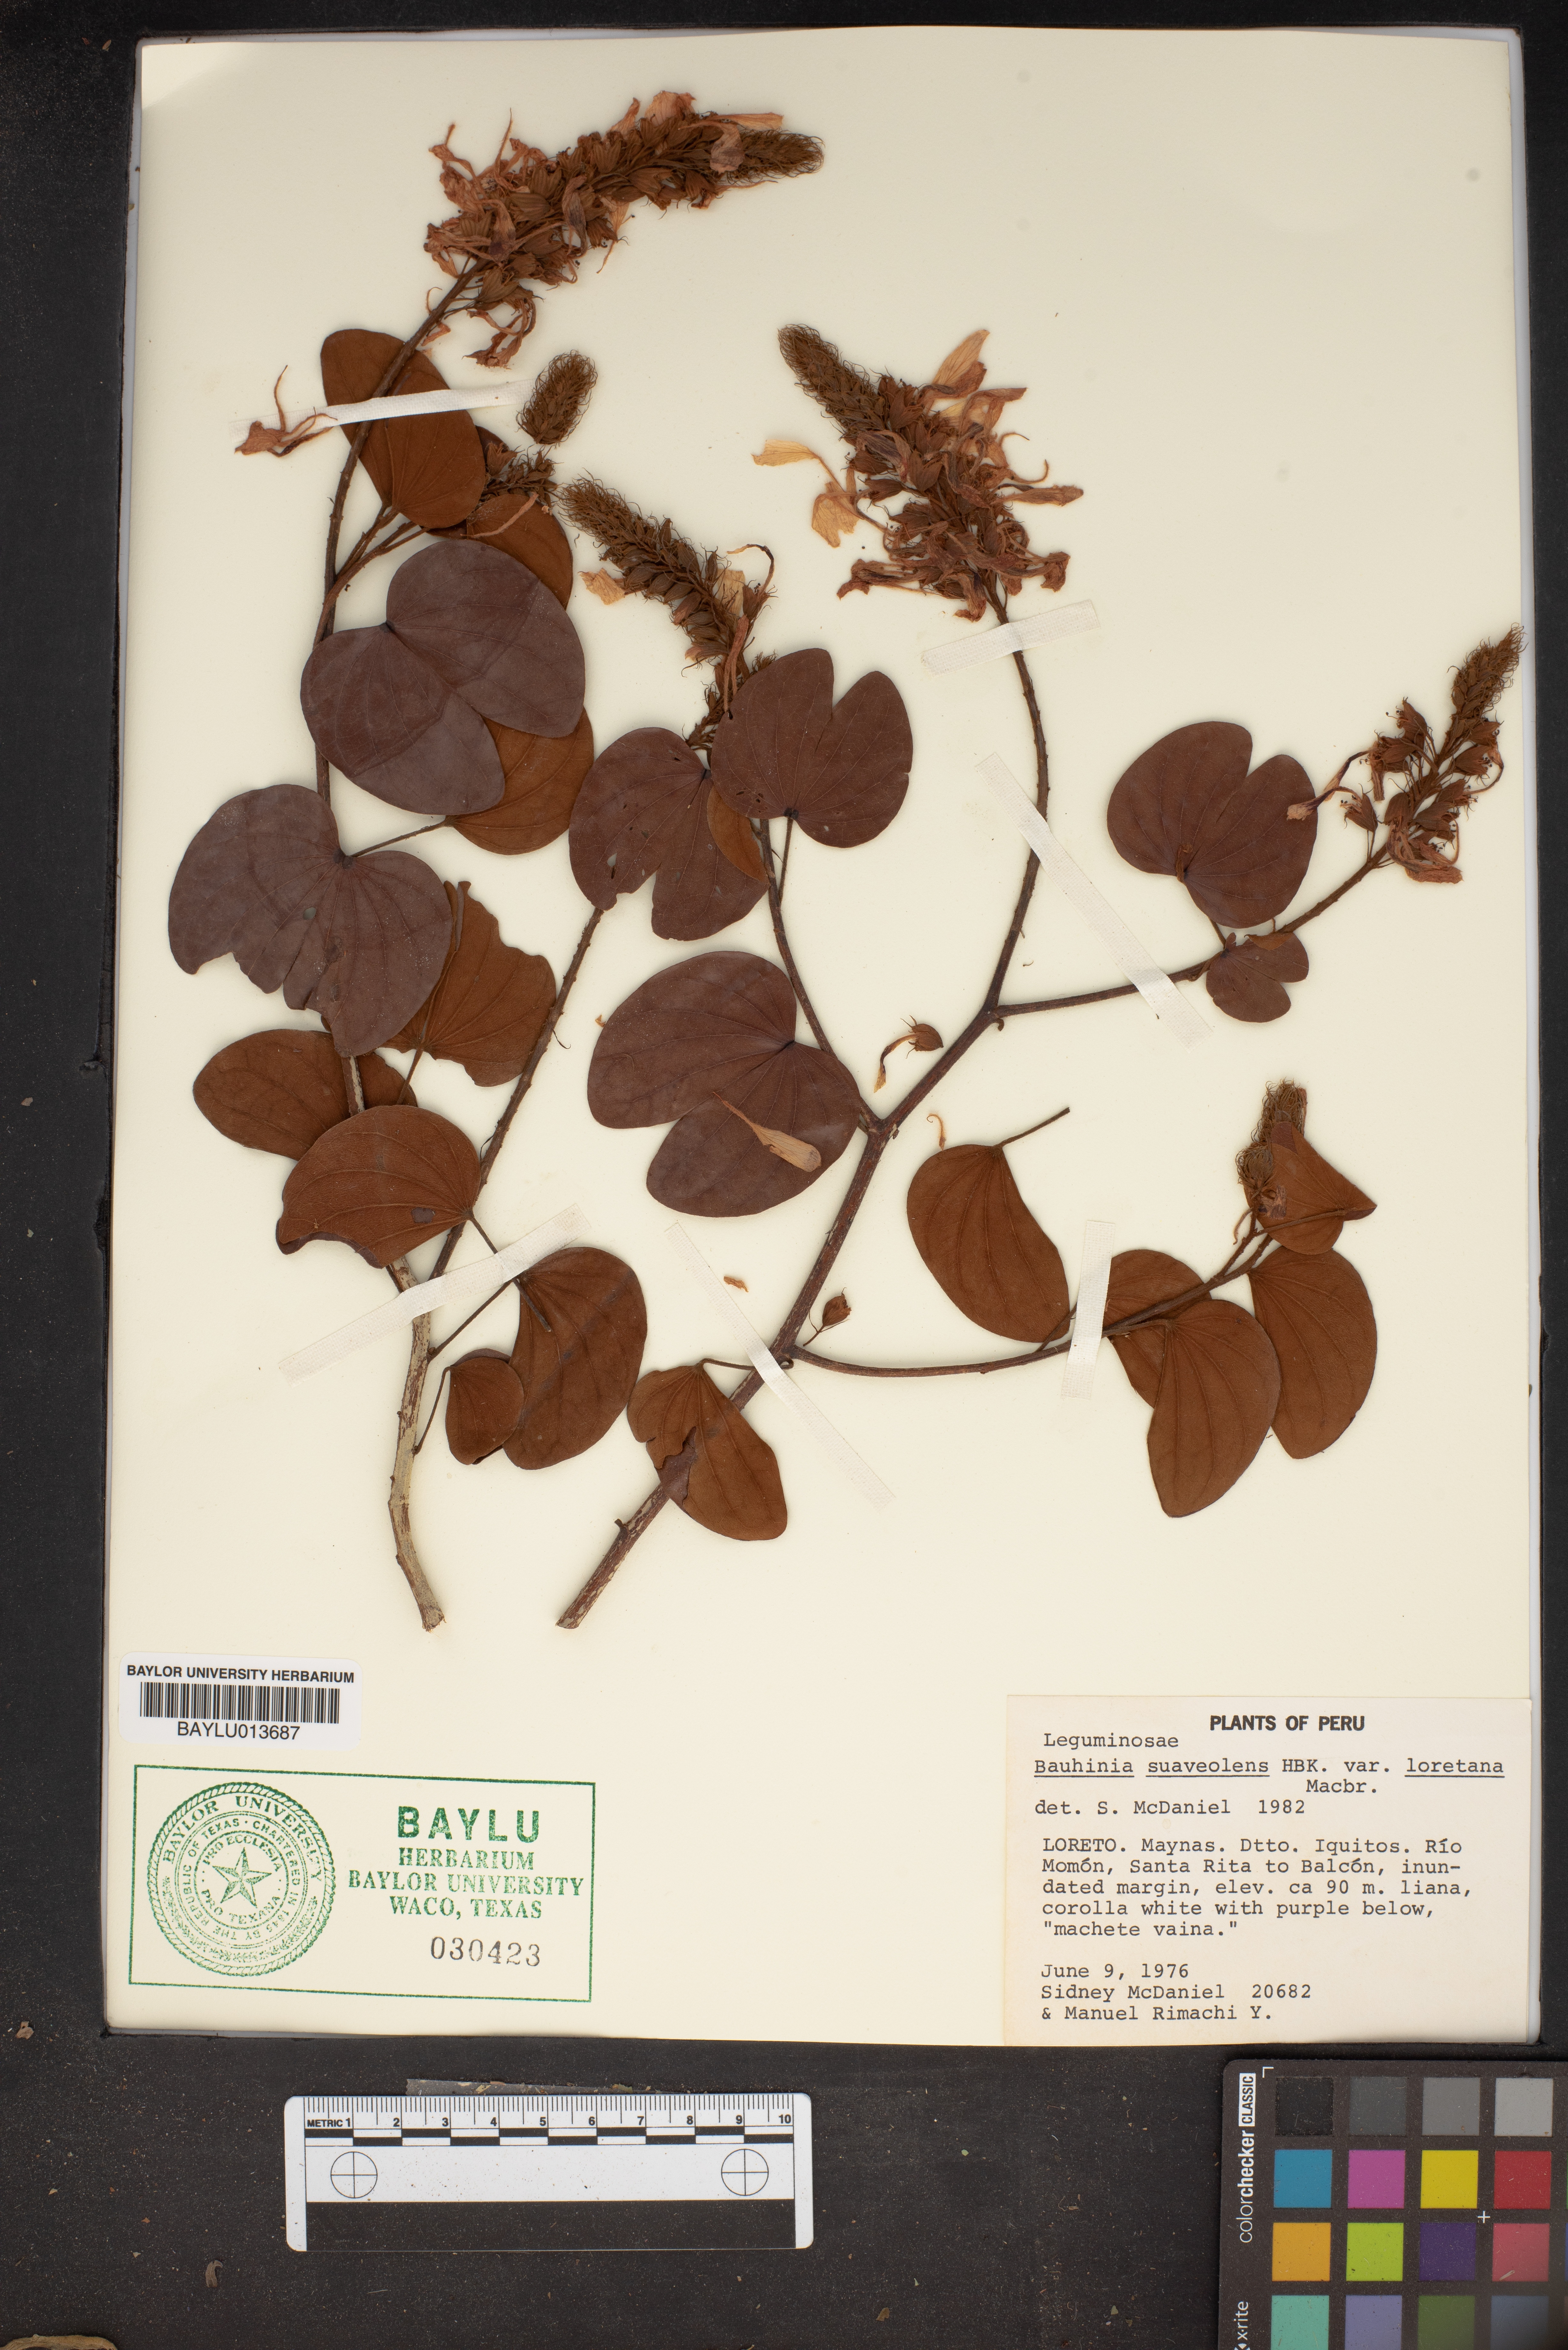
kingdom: Plantae
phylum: Tracheophyta
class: Magnoliopsida
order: Fabales
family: Fabaceae
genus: Schnella
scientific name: Schnella glabra
